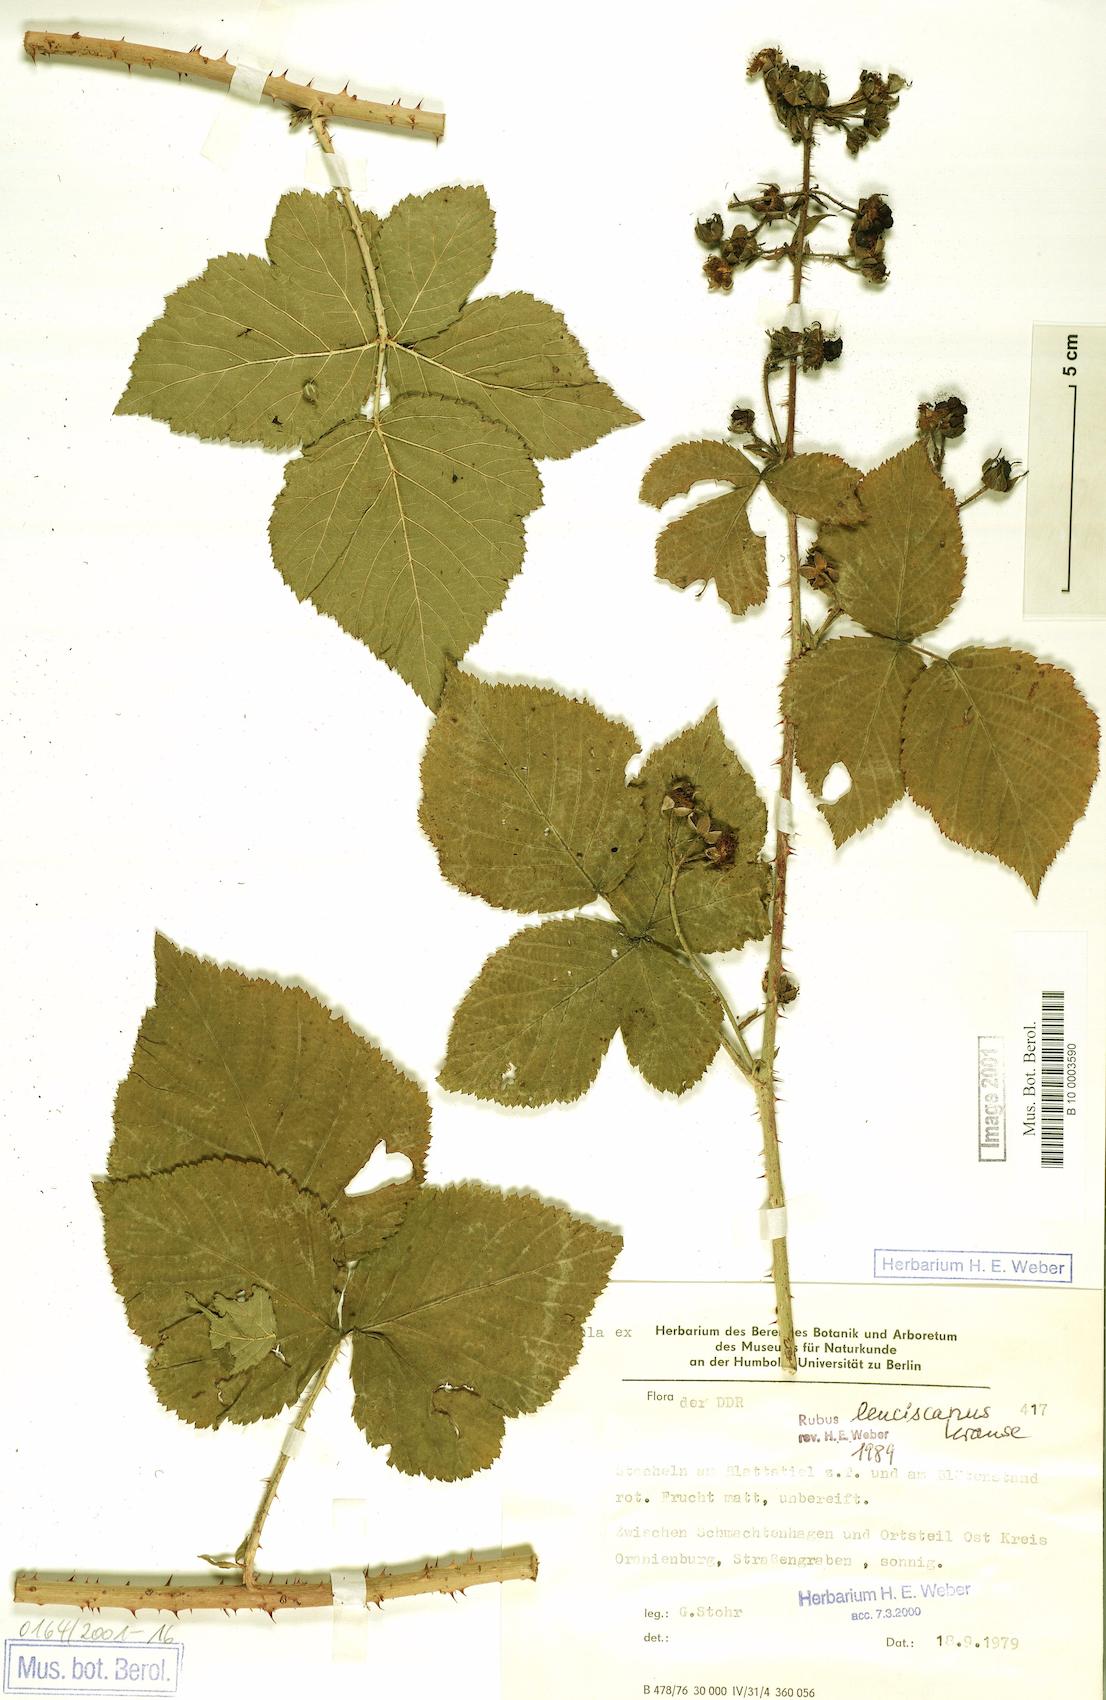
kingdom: Plantae
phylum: Tracheophyta
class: Magnoliopsida
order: Rosales
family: Rosaceae
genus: Rubus
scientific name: Rubus leuciscanus
